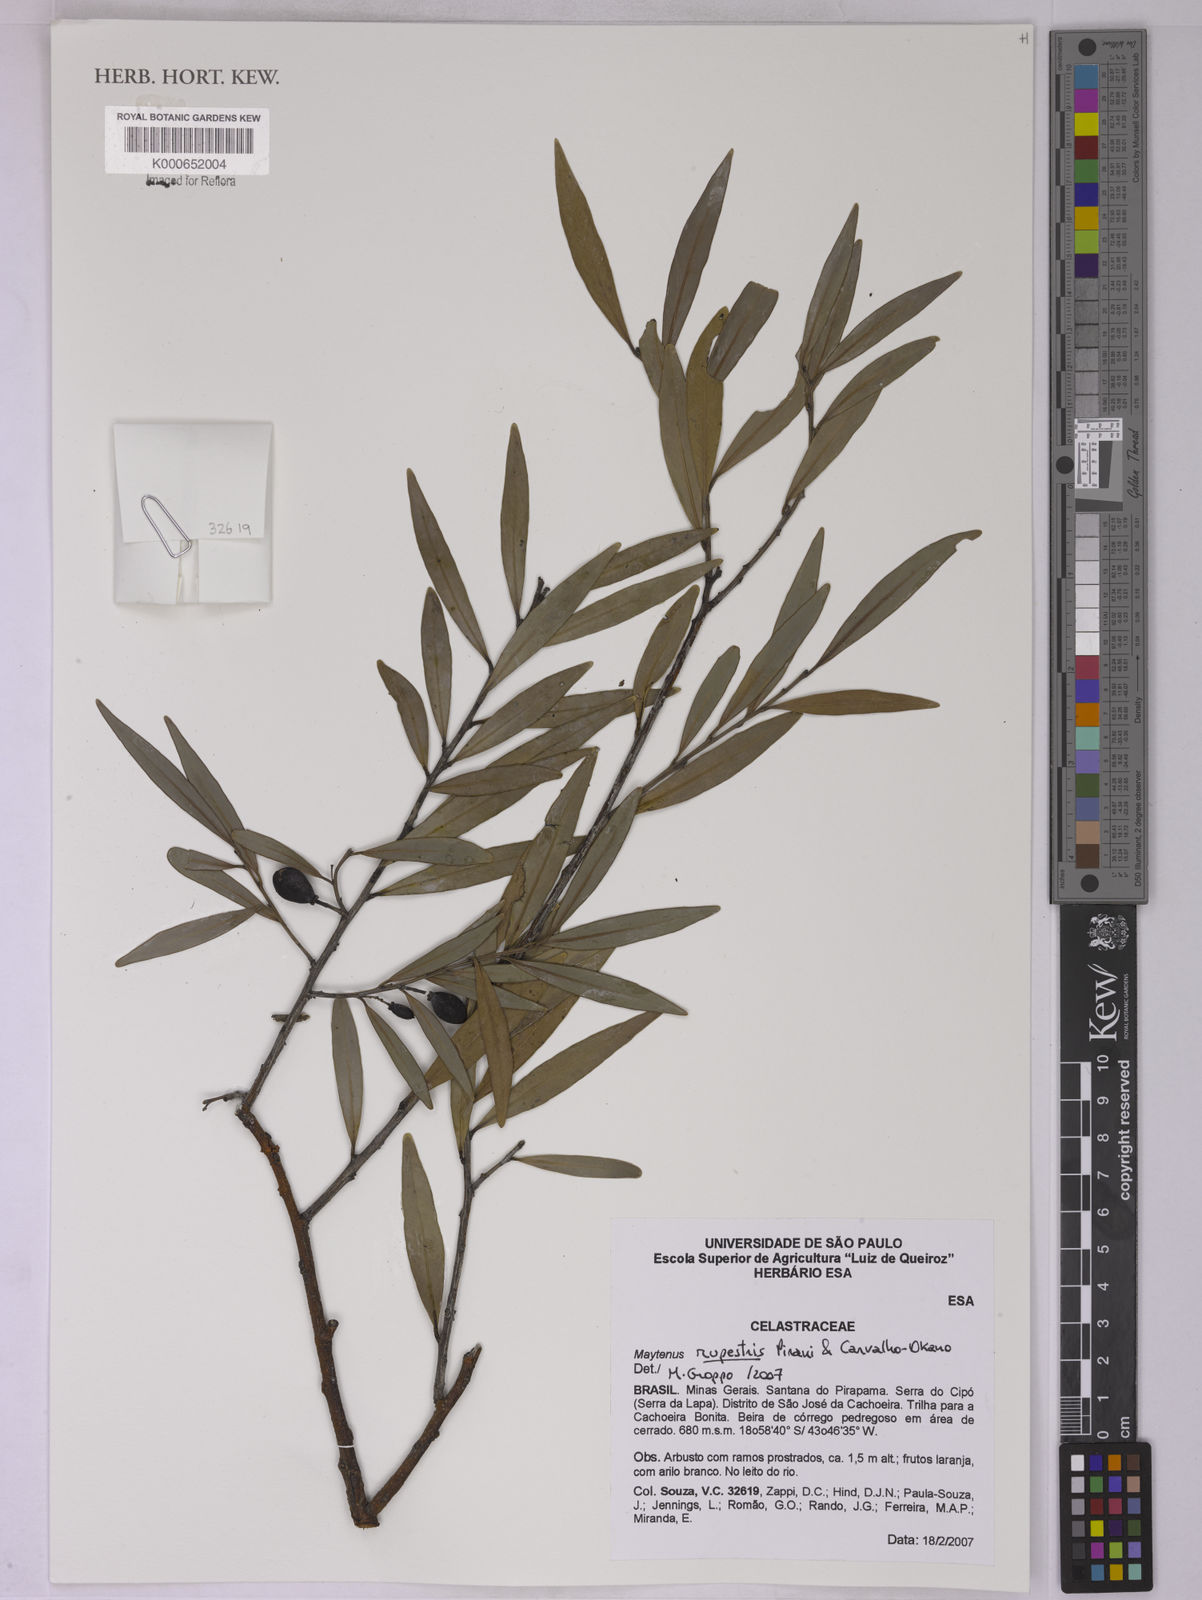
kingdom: Plantae
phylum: Tracheophyta
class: Magnoliopsida
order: Celastrales
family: Celastraceae
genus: Monteverdia
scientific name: Monteverdia rupestris
